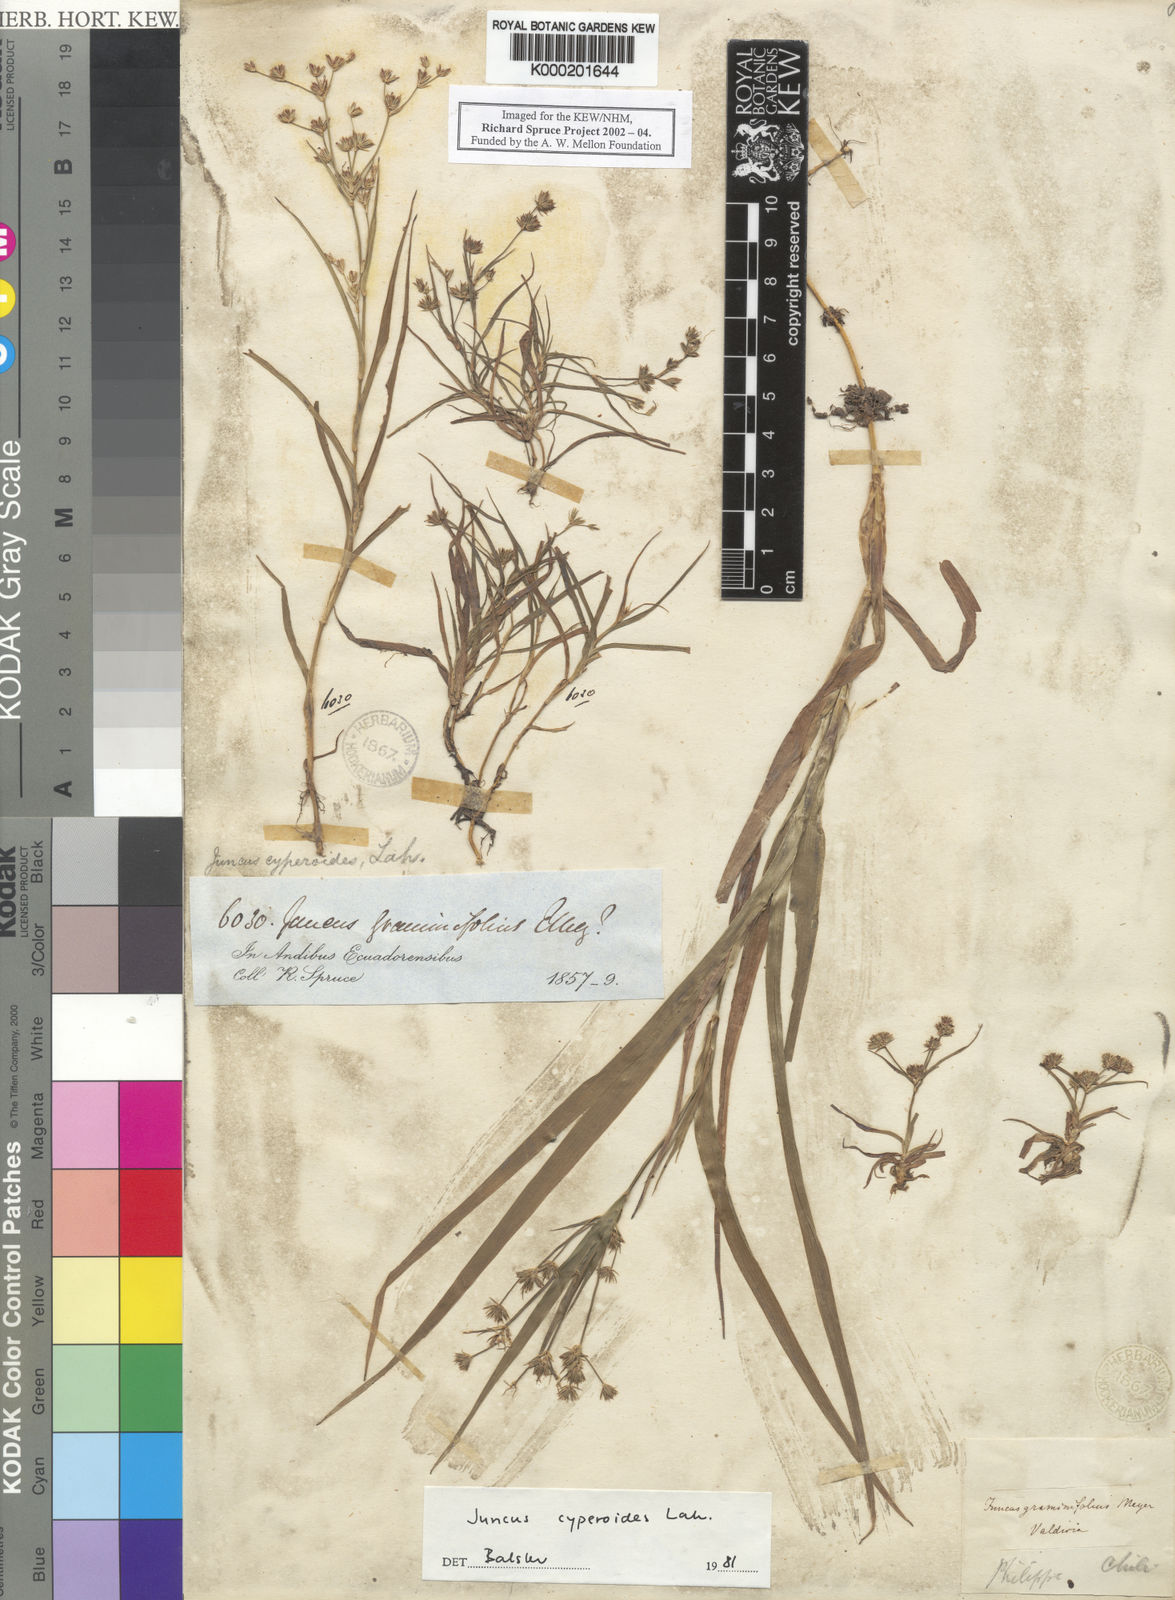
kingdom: Plantae
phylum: Tracheophyta
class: Liliopsida
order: Poales
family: Juncaceae
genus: Juncus
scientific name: Juncus cyperoides
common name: Forbestown rush
